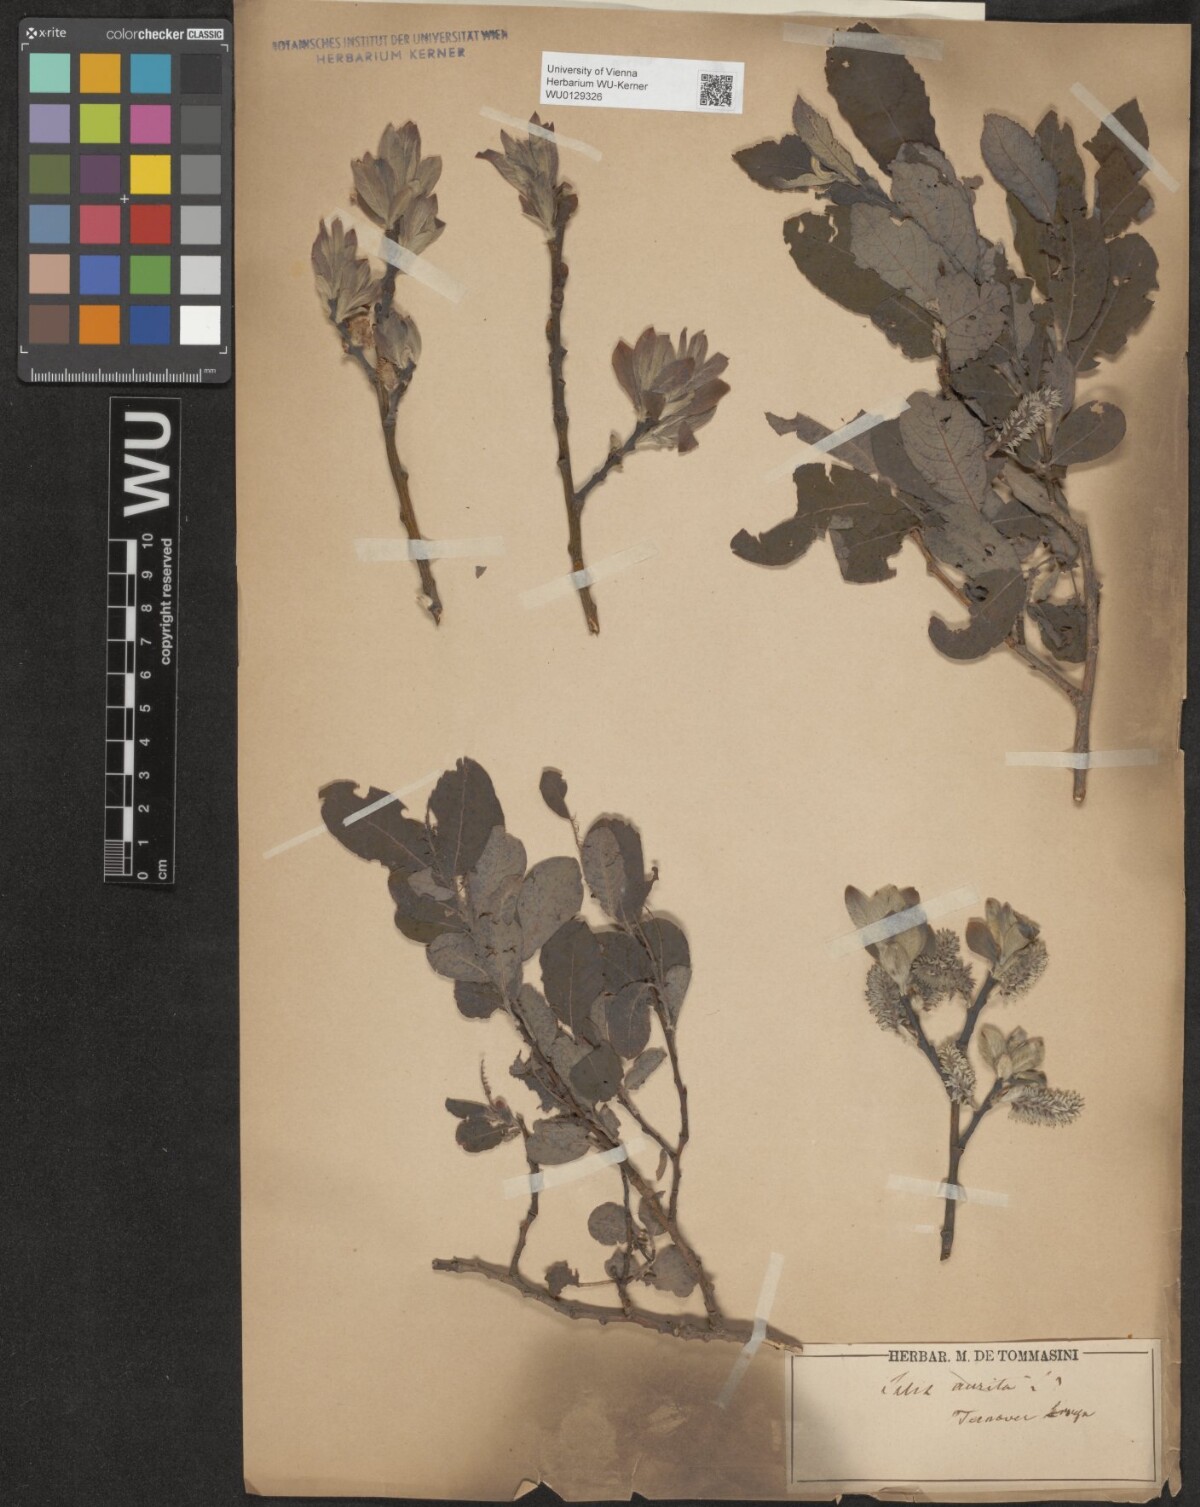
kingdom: Plantae
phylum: Tracheophyta
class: Magnoliopsida
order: Malpighiales
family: Salicaceae
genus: Salix
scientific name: Salix appendiculata
